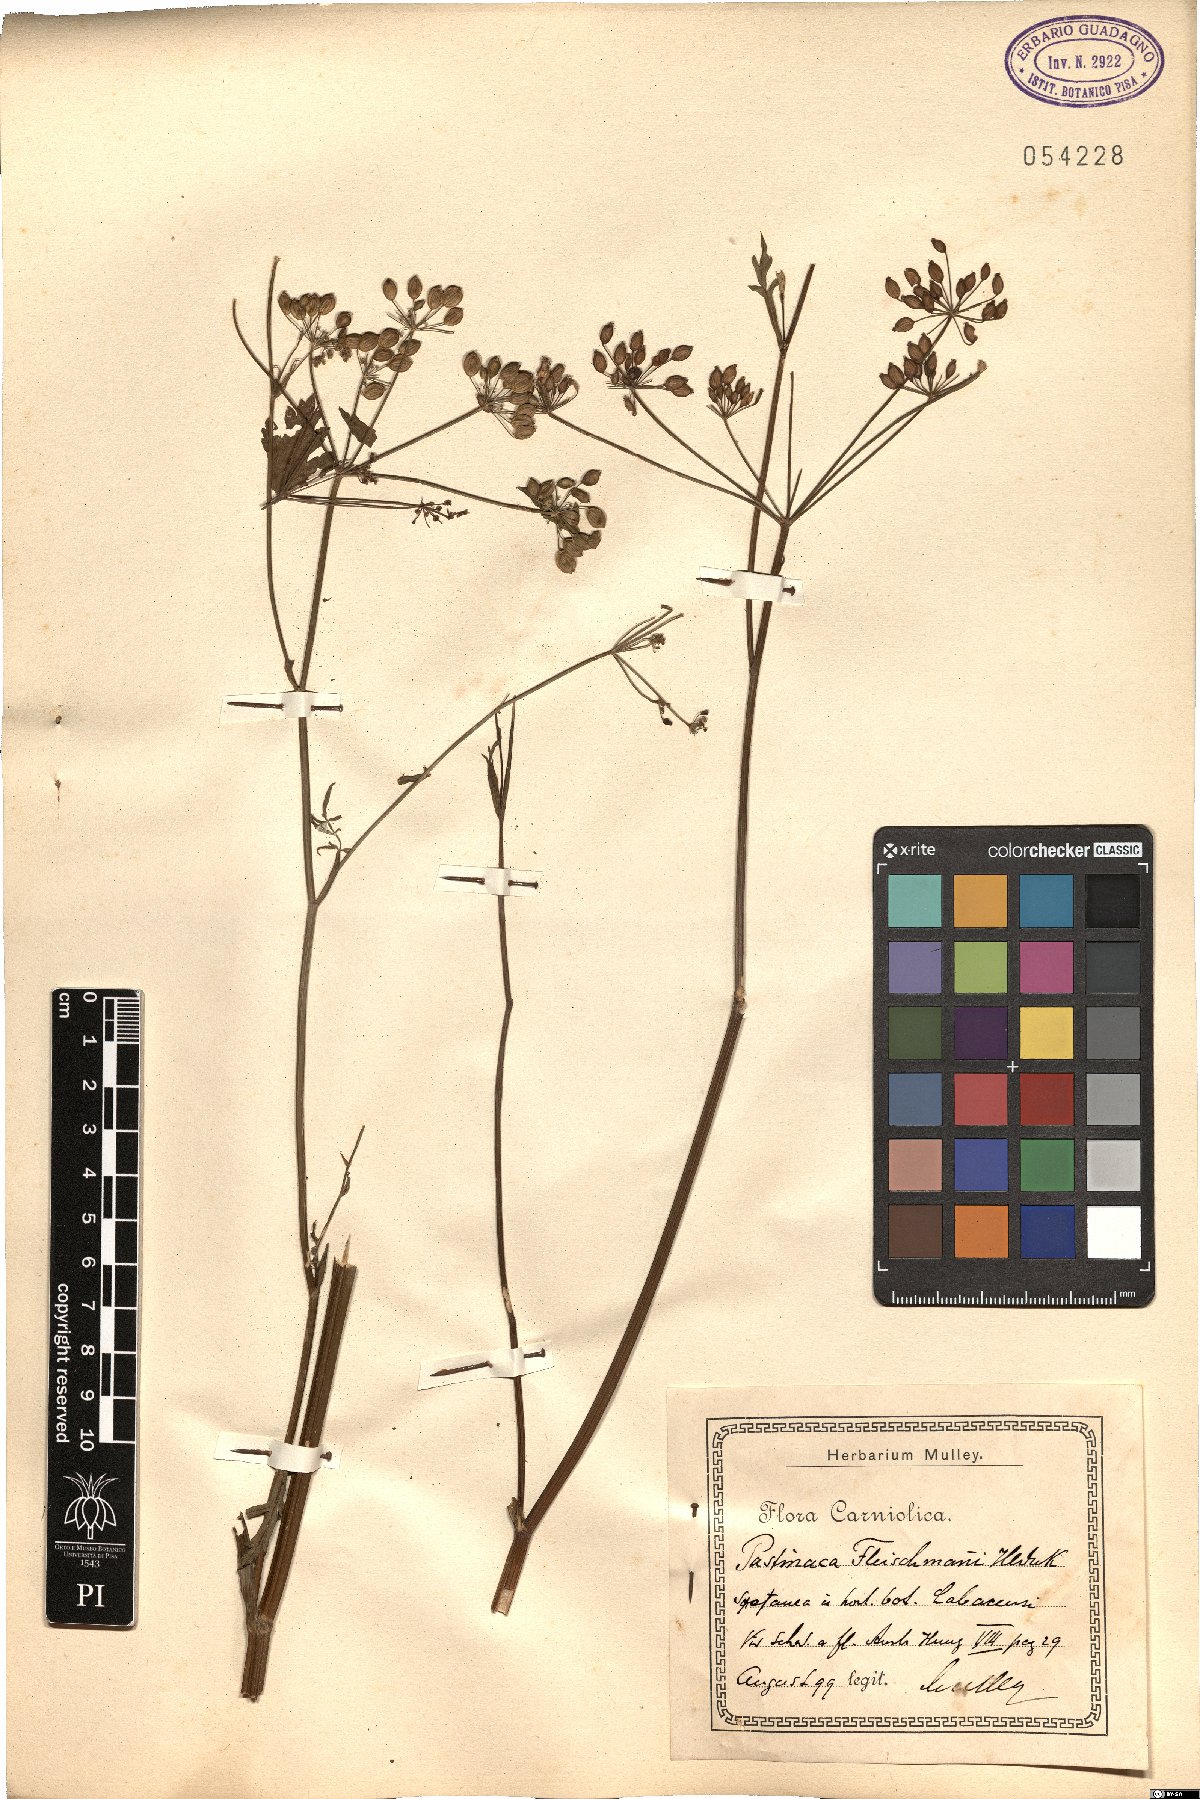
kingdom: Plantae
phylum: Tracheophyta
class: Magnoliopsida
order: Apiales
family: Apiaceae
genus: Pastinaca
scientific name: Pastinaca fleischmannii
